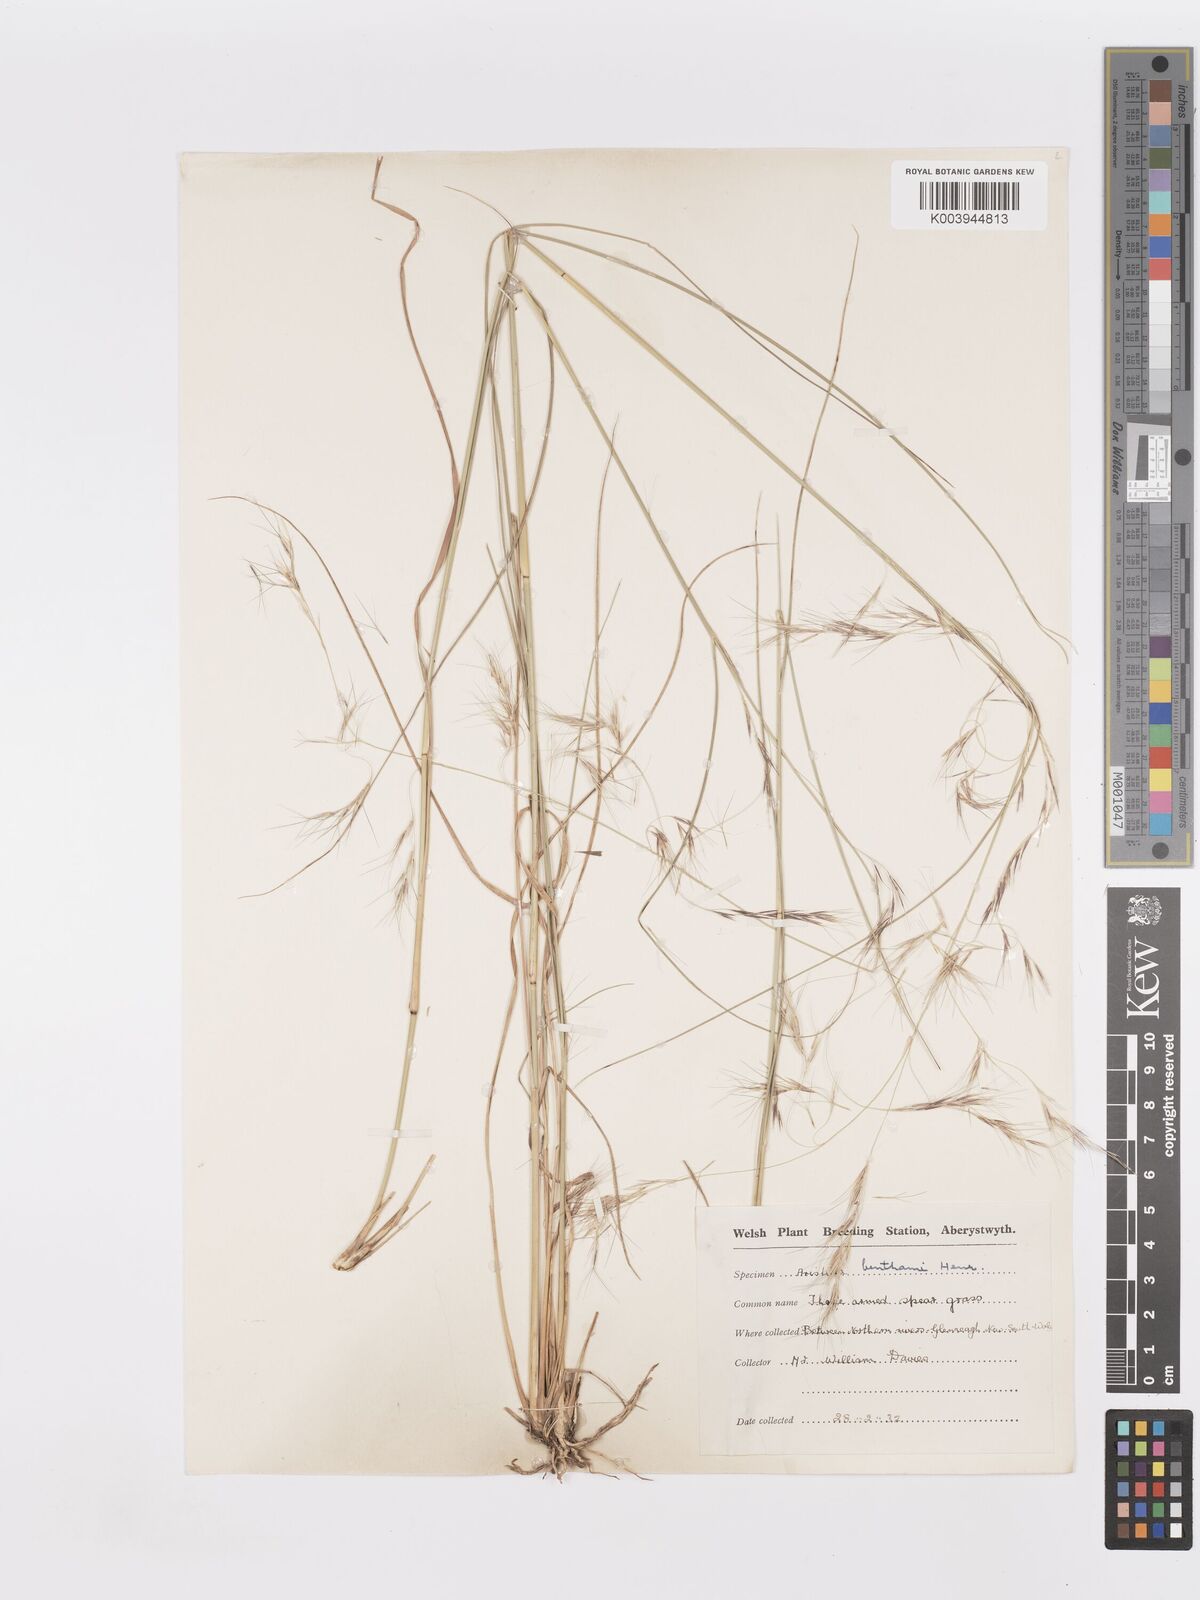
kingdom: Plantae
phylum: Tracheophyta
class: Liliopsida
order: Poales
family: Poaceae
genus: Aristida
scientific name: Aristida benthamii
